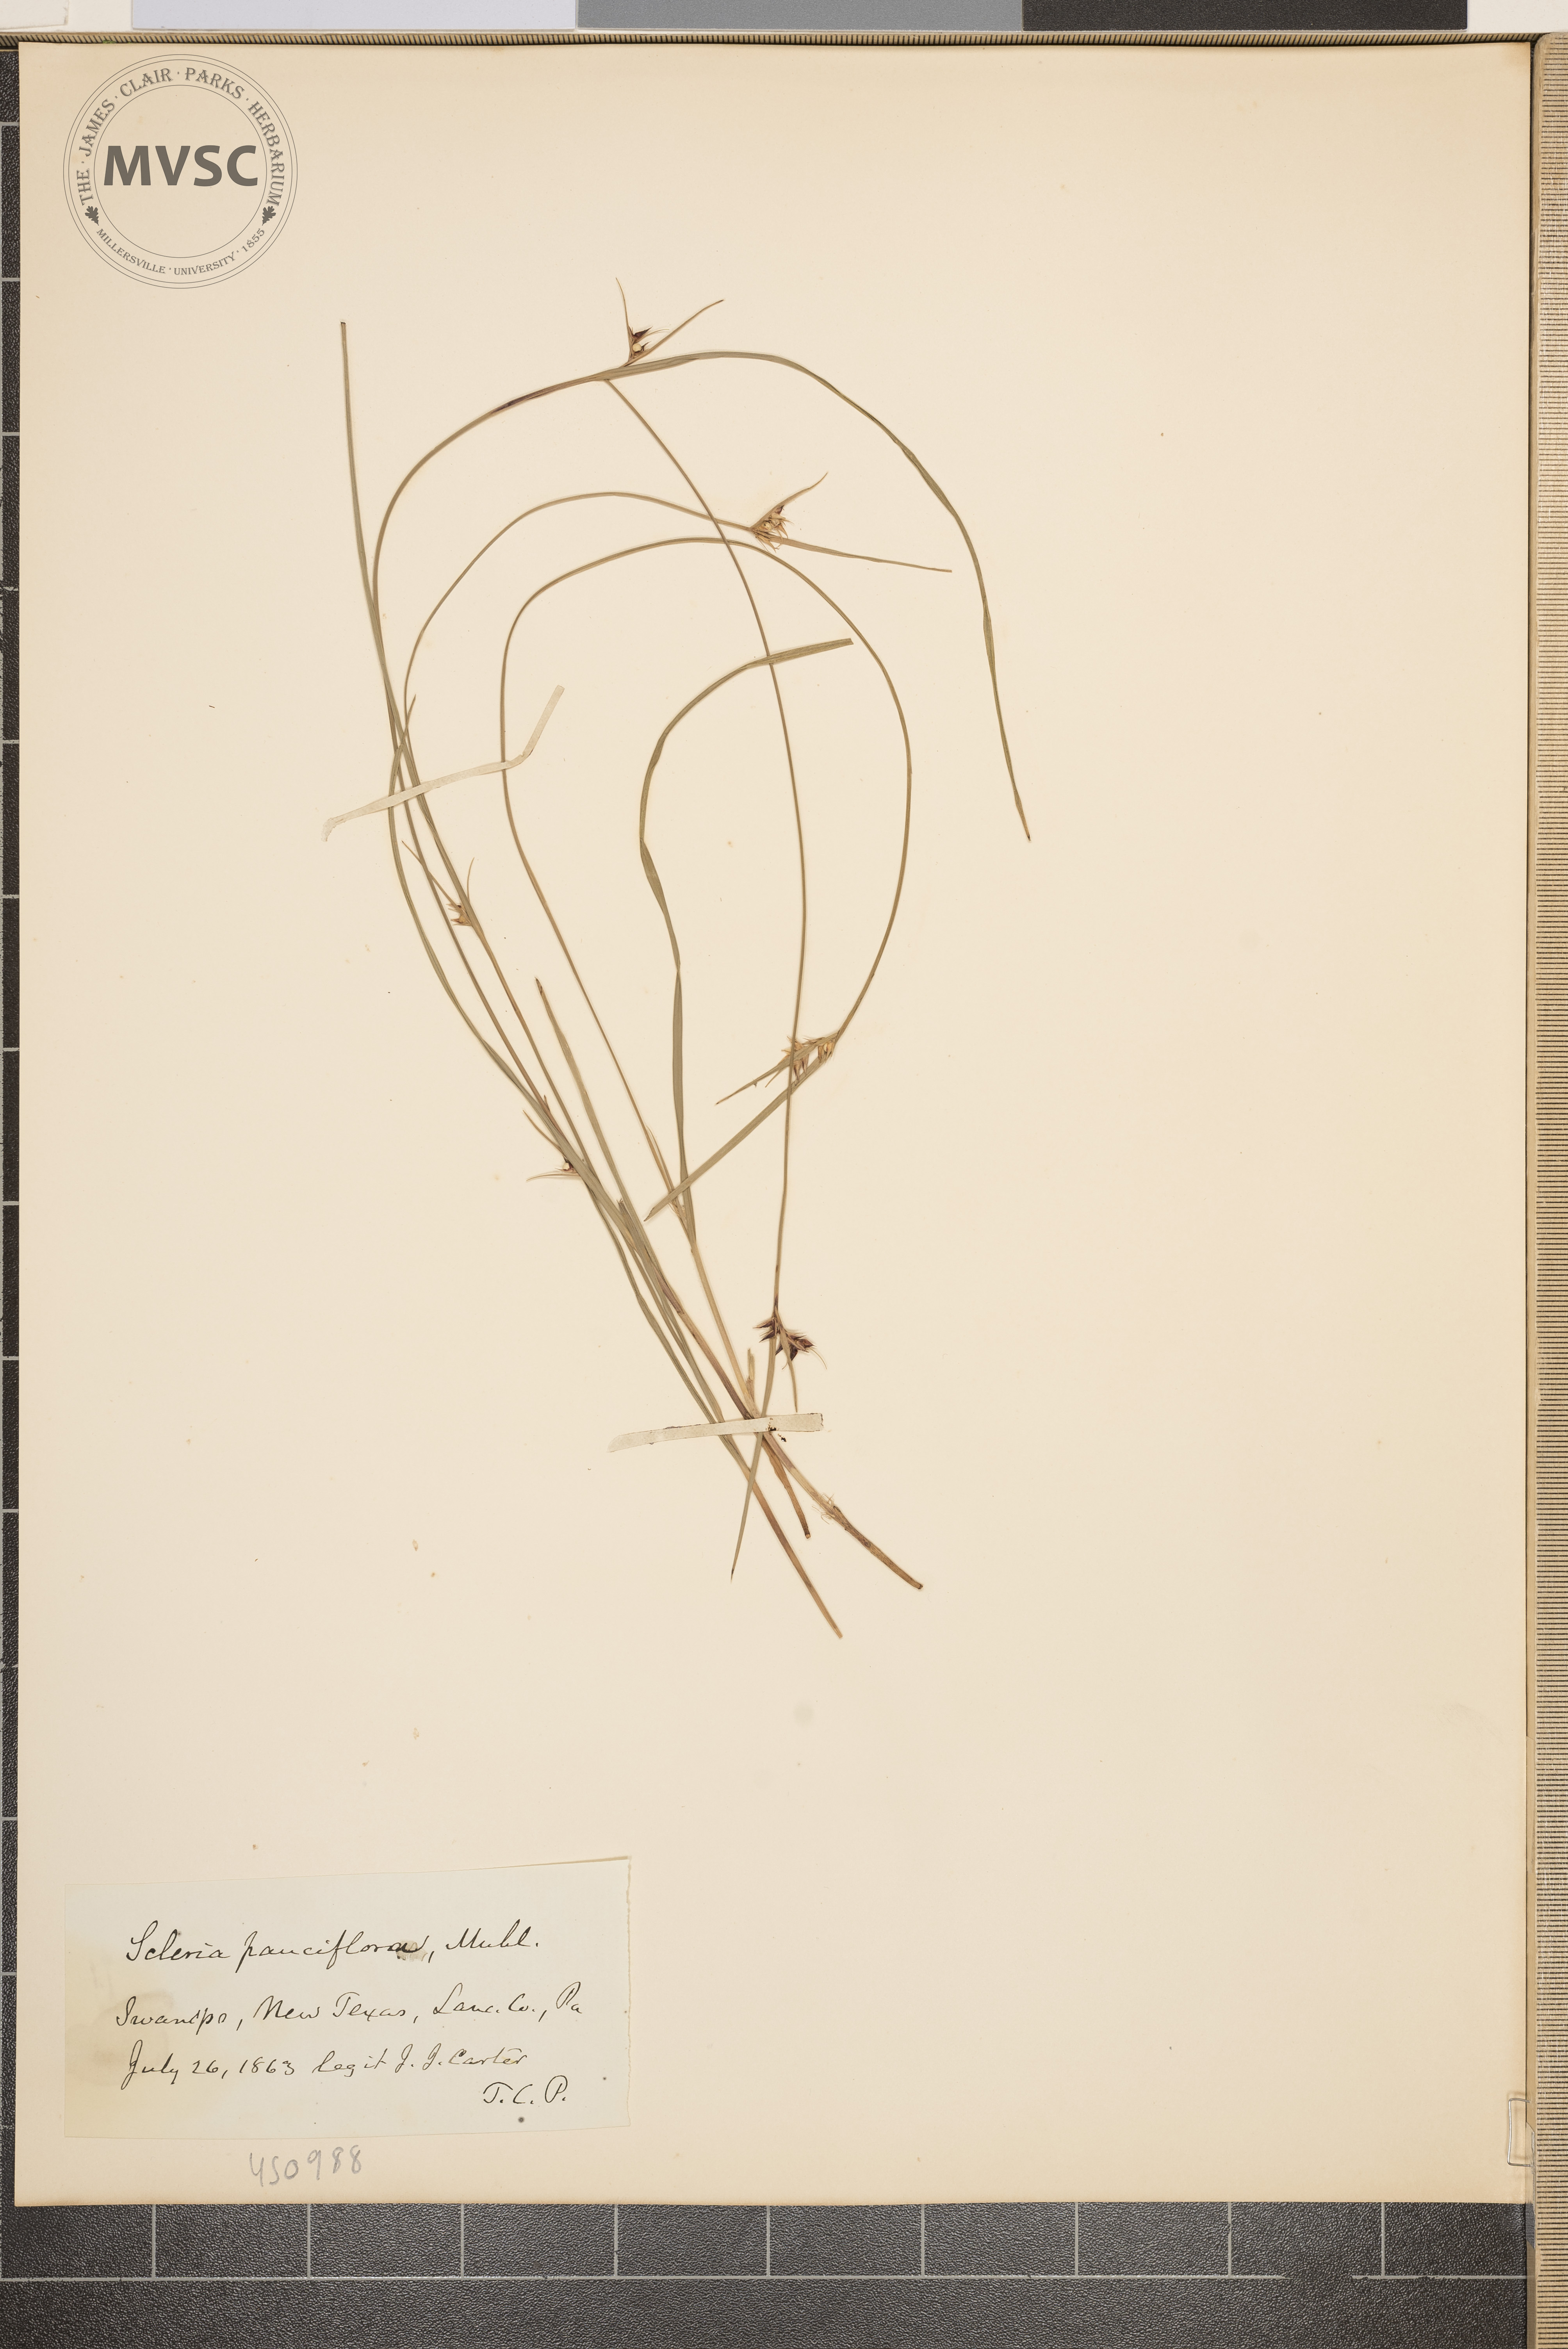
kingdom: Plantae
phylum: Tracheophyta
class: Liliopsida
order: Poales
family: Cyperaceae
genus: Scleria
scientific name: Scleria pauciflora
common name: Few-flowered nutrush
